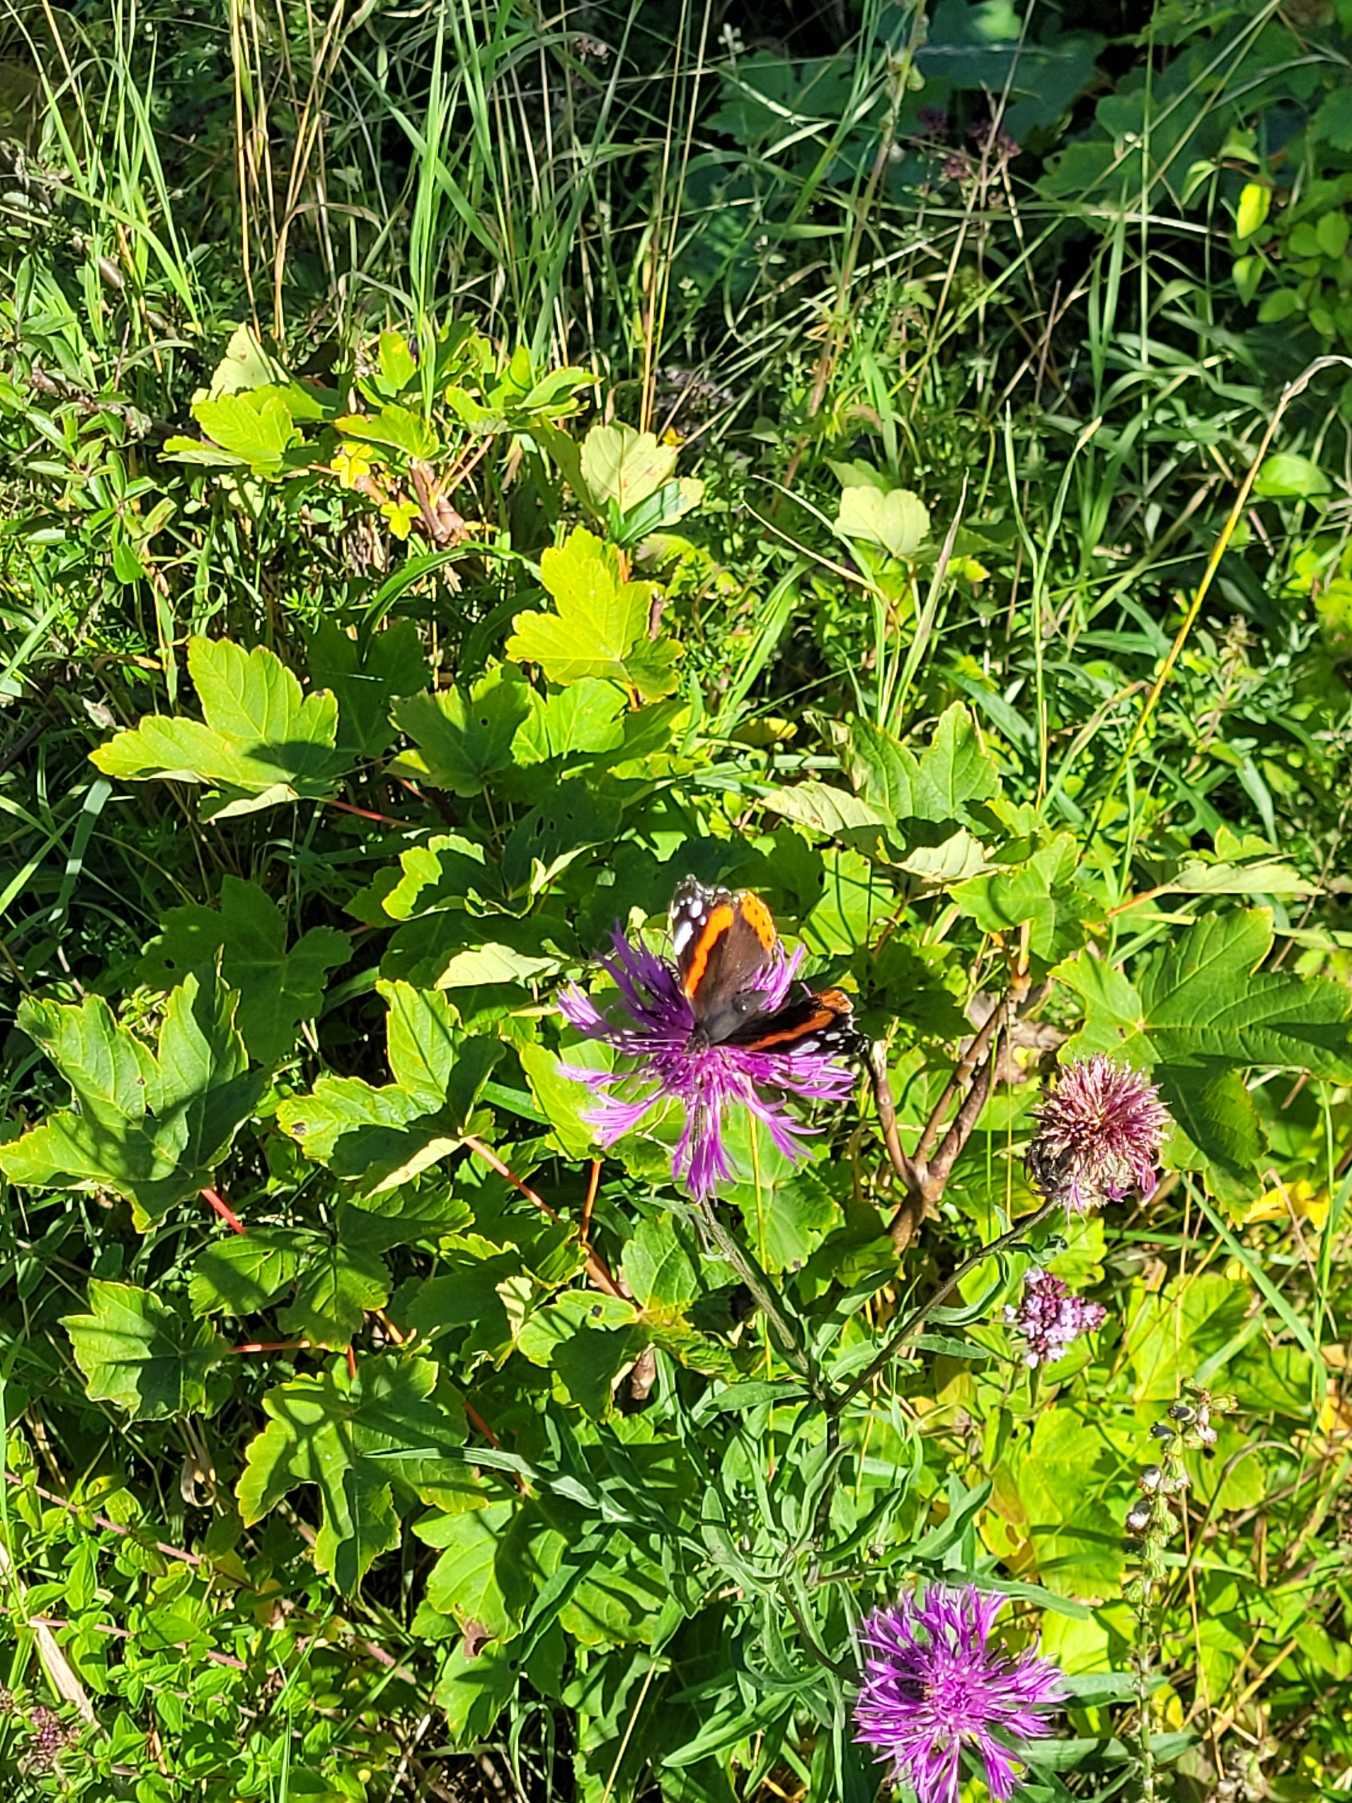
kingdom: Animalia
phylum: Arthropoda
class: Insecta
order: Lepidoptera
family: Nymphalidae
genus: Vanessa
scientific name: Vanessa atalanta
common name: Admiral
